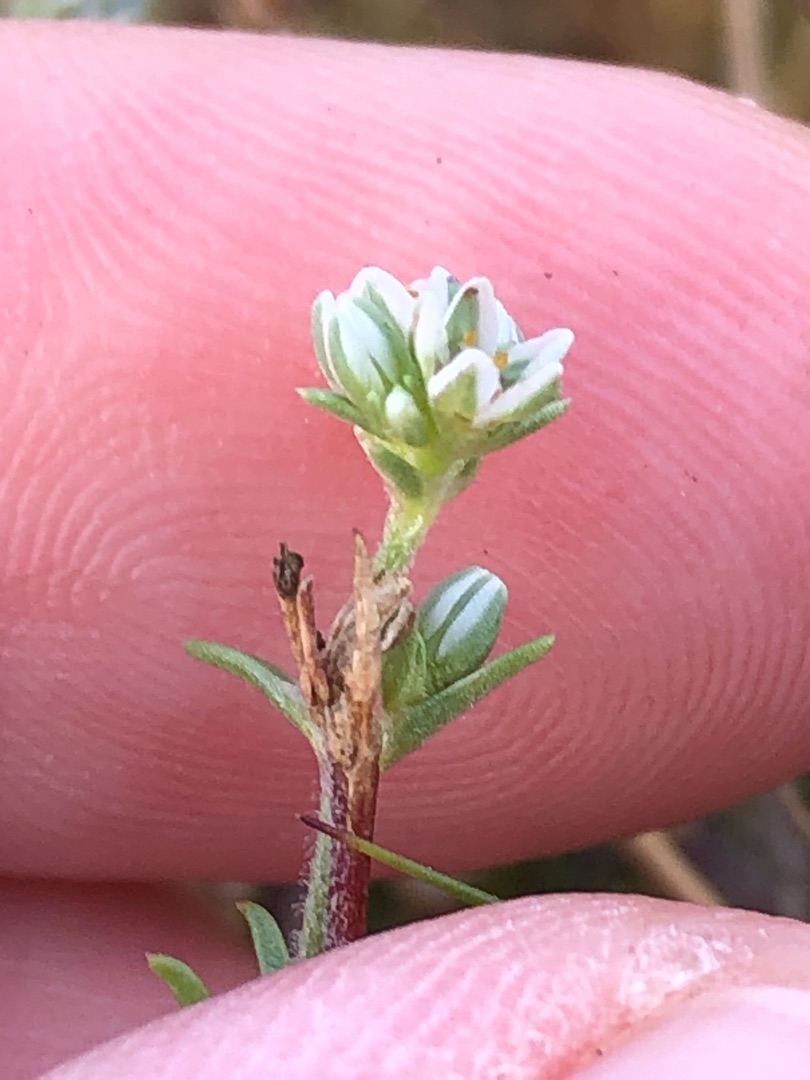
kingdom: Plantae
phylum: Tracheophyta
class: Magnoliopsida
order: Caryophyllales
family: Caryophyllaceae
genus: Scleranthus
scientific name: Scleranthus perennis
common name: Flerårig knavel
